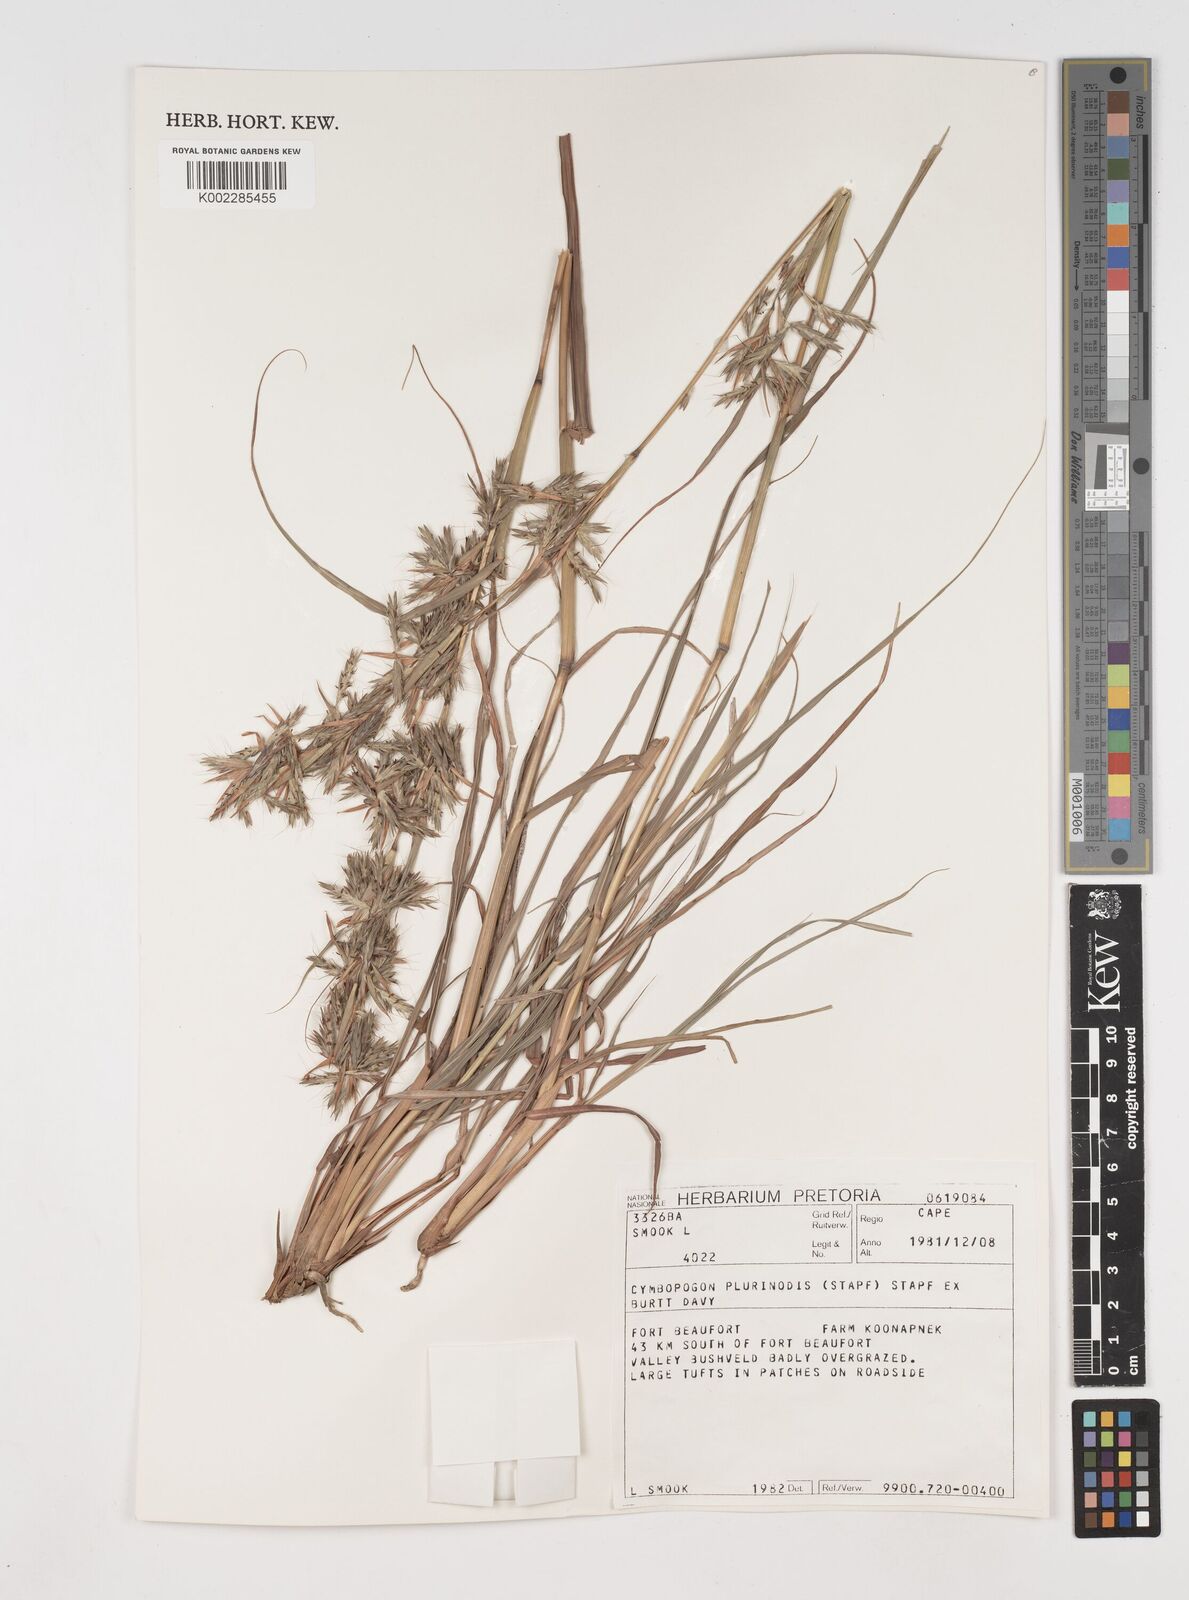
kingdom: Plantae
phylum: Tracheophyta
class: Liliopsida
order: Poales
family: Poaceae
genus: Cymbopogon
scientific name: Cymbopogon pospischilii
